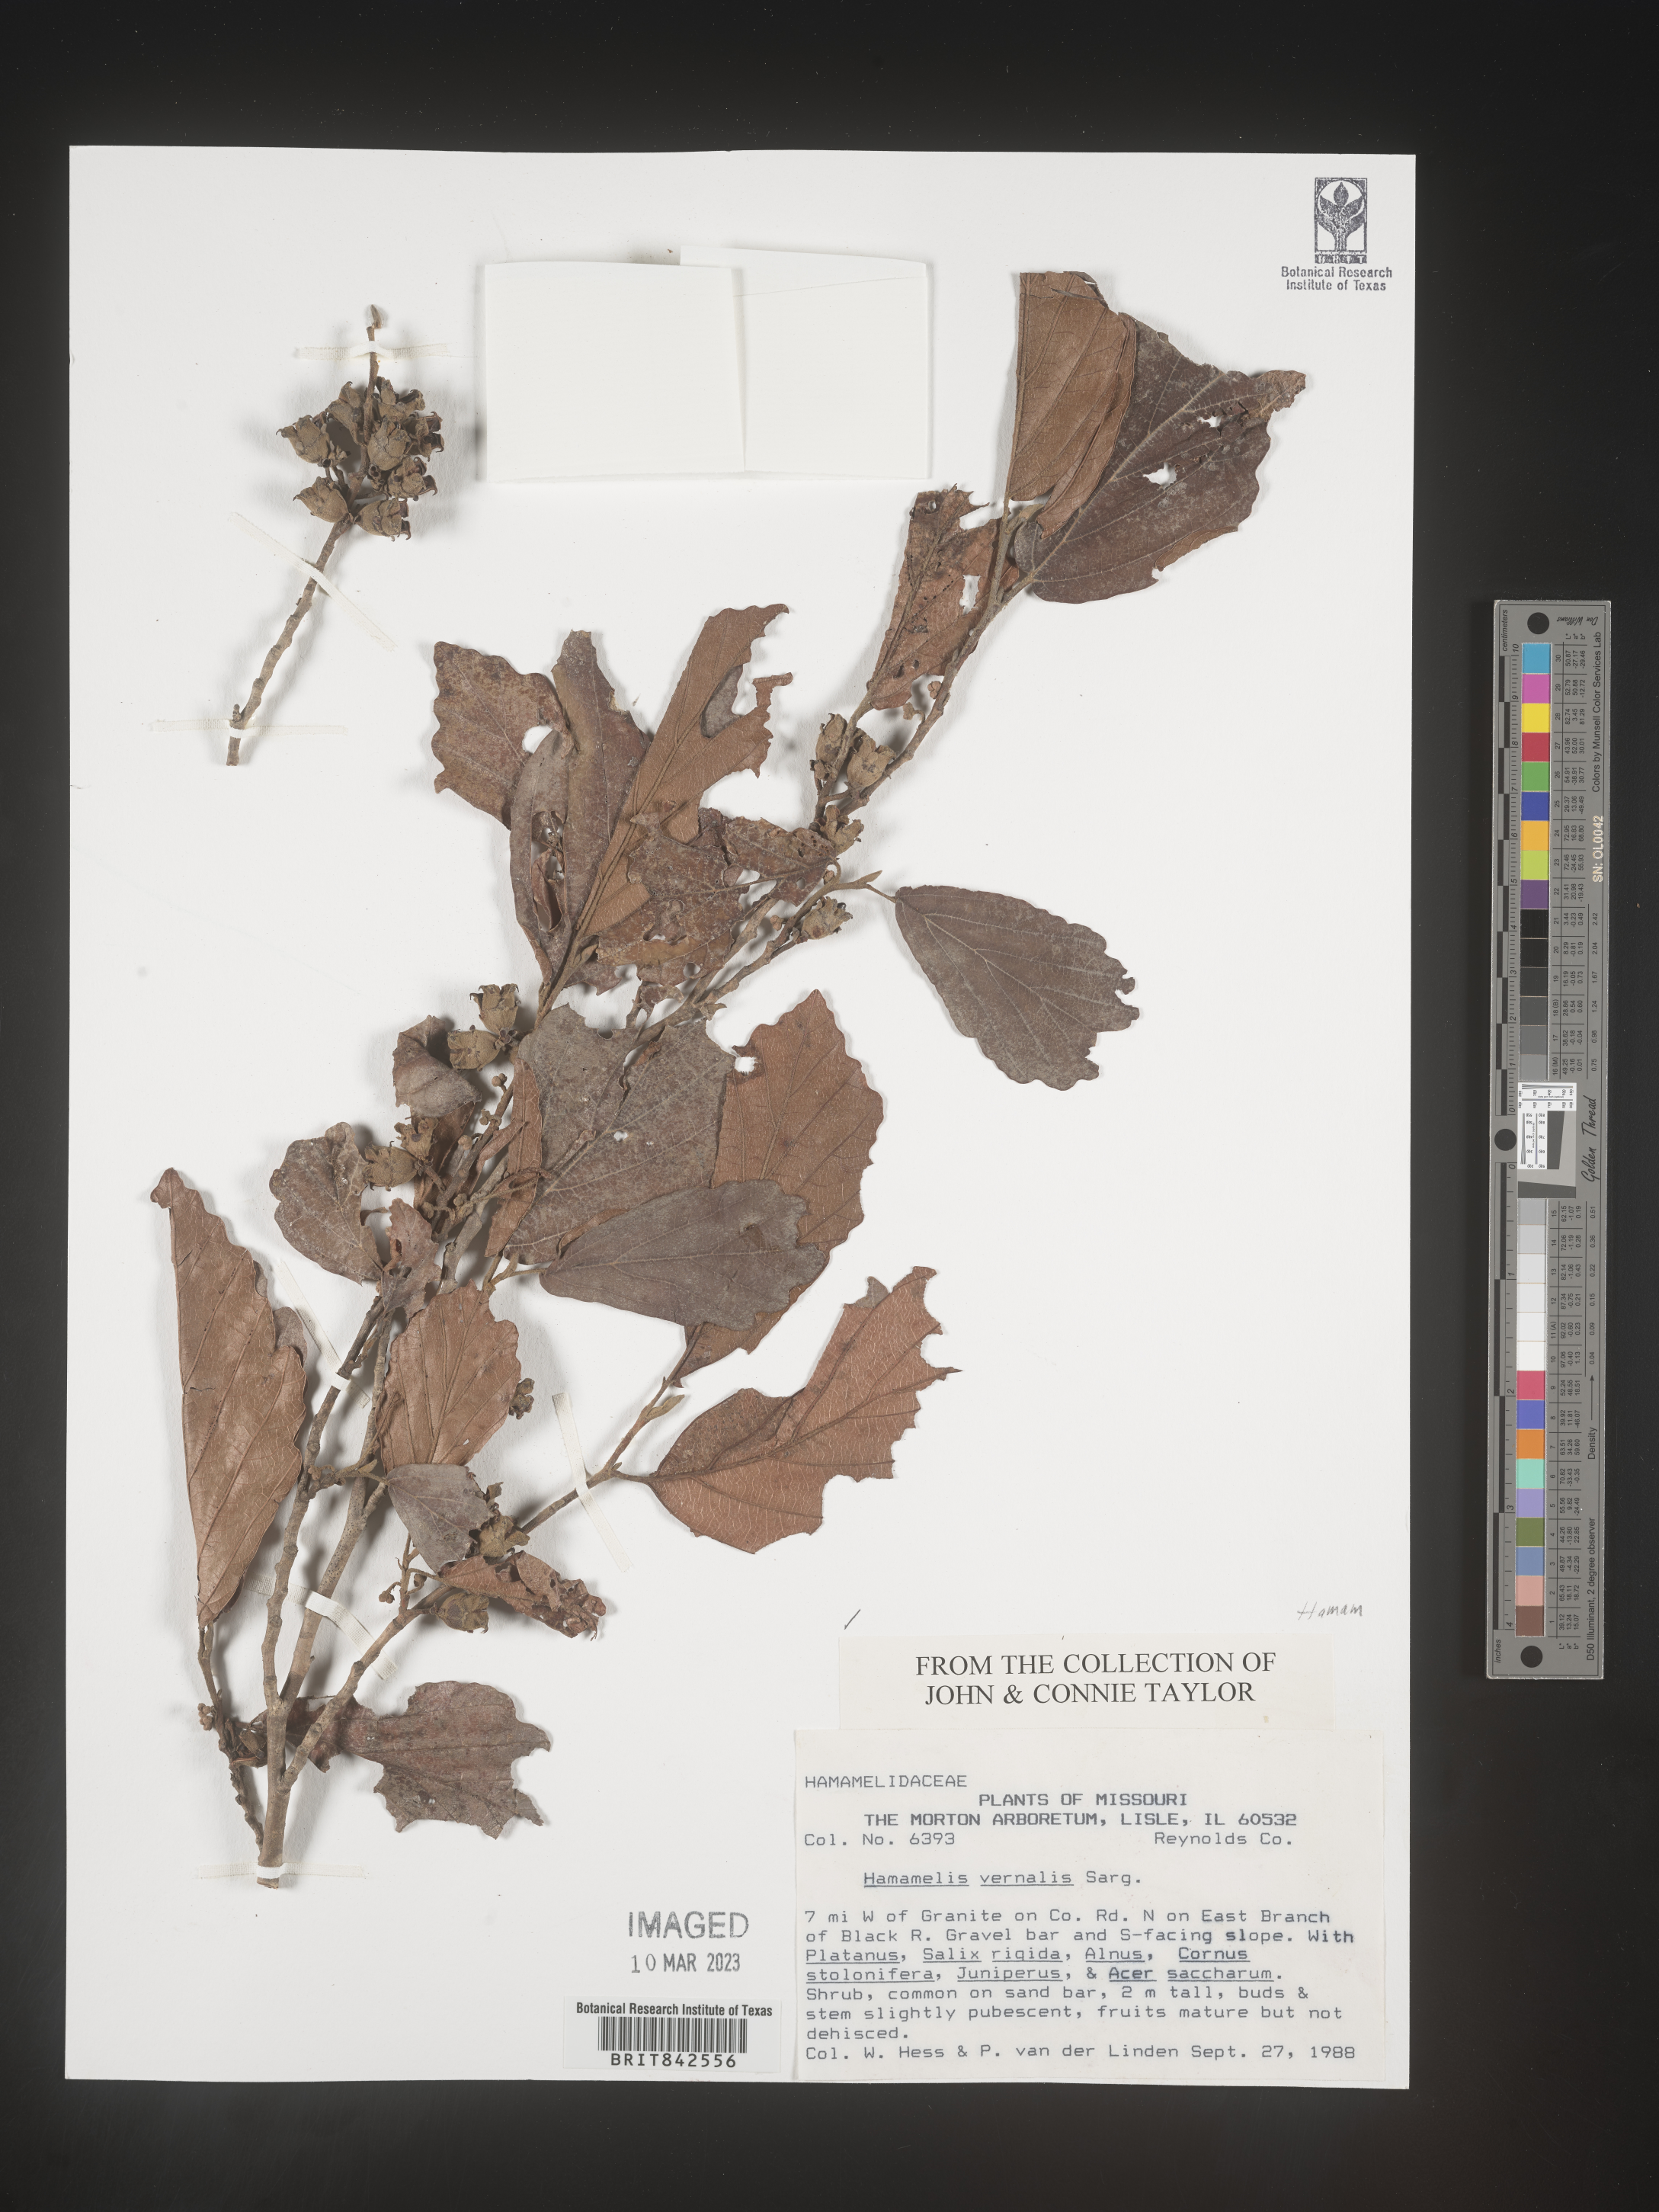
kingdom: Plantae
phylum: Tracheophyta
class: Magnoliopsida
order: Saxifragales
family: Hamamelidaceae
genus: Hamamelis
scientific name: Hamamelis vernalis
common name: Ozark witch-hazel
